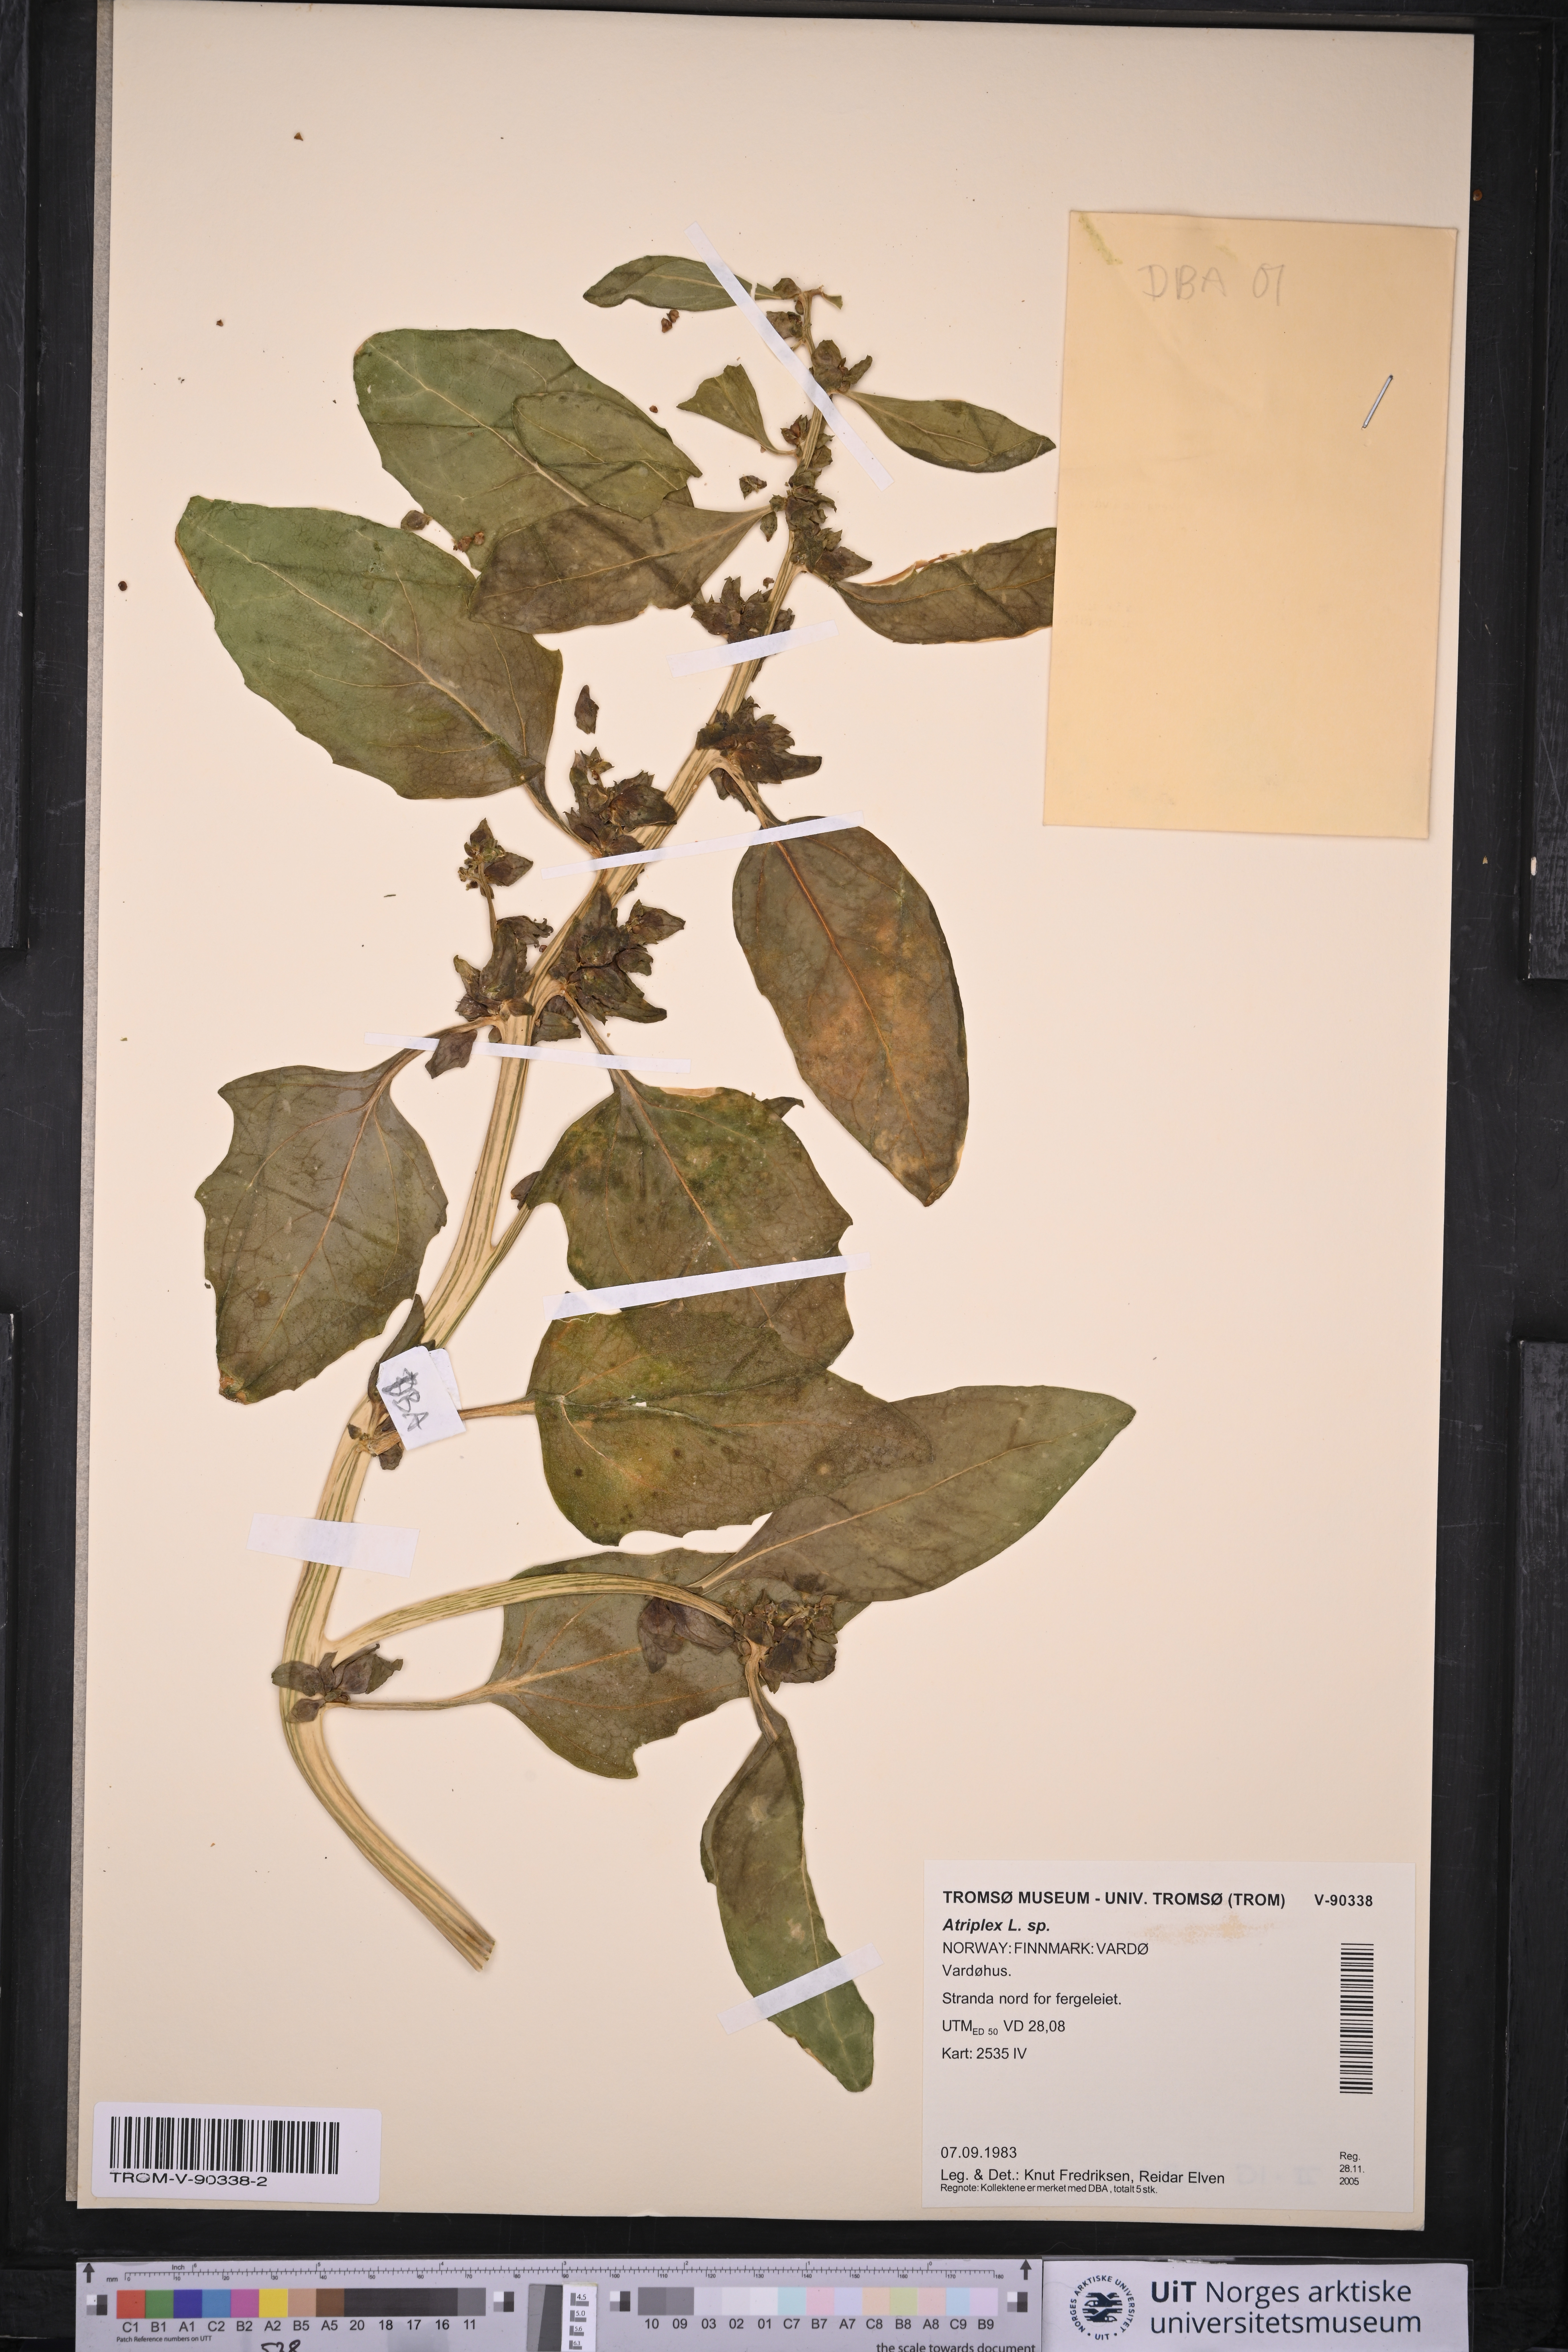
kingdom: Plantae
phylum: Tracheophyta
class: Magnoliopsida
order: Caryophyllales
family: Amaranthaceae
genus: Atriplex
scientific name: Atriplex
